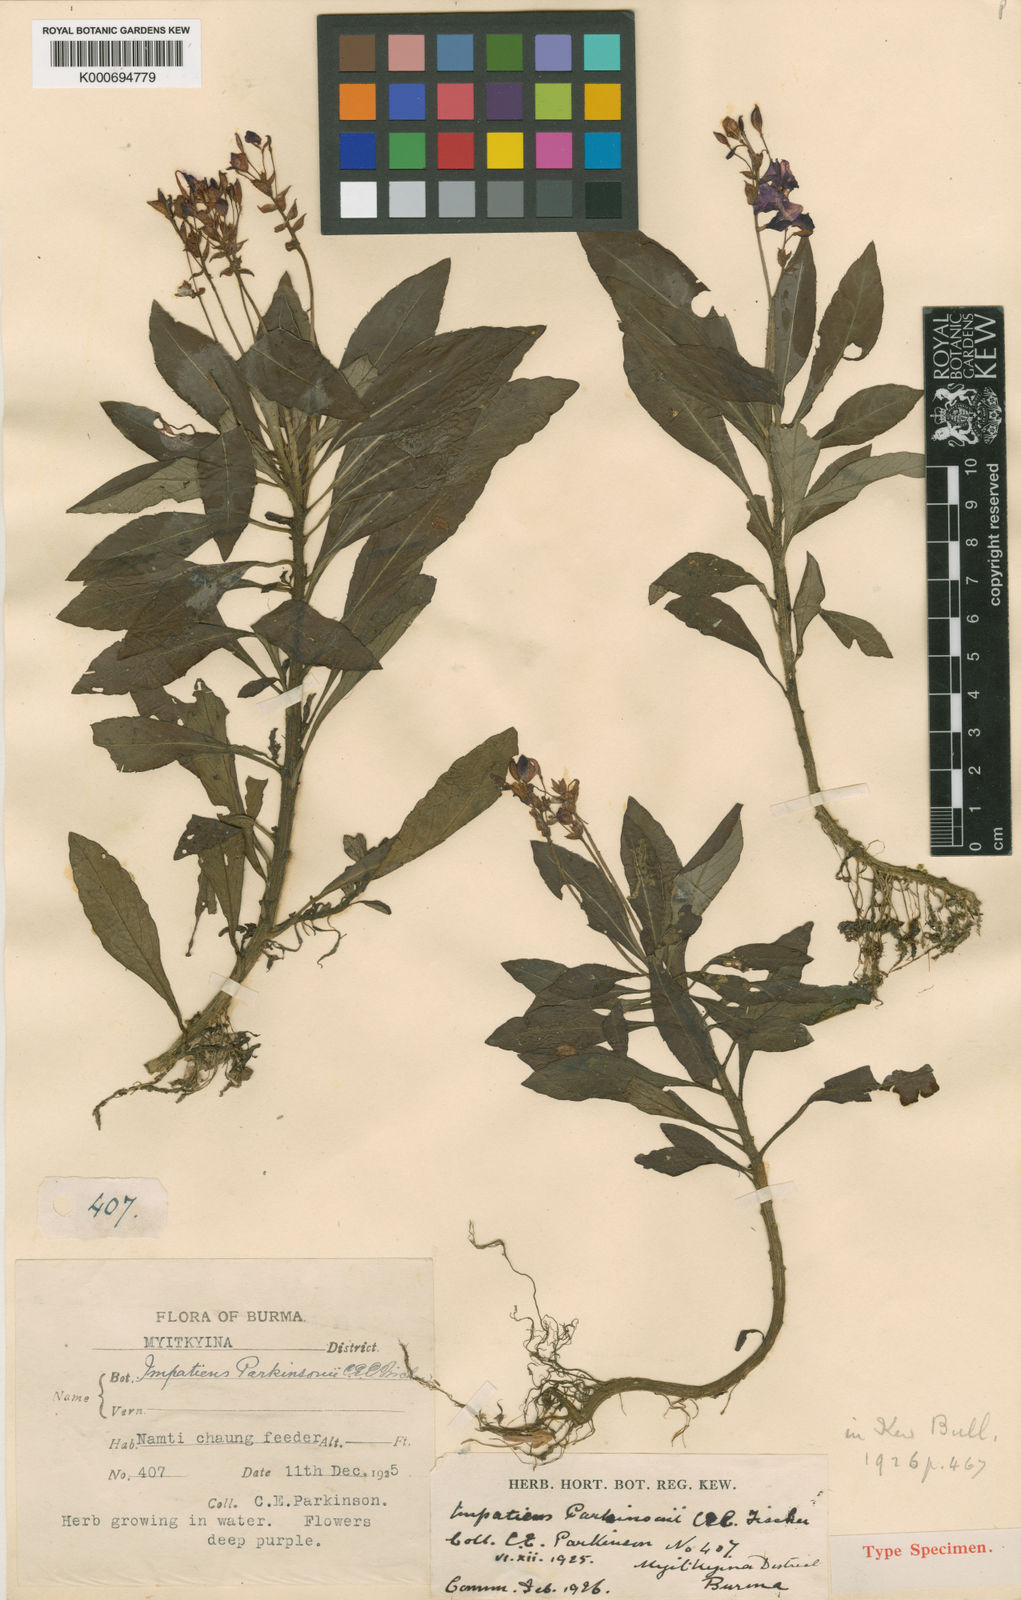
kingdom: Plantae
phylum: Tracheophyta
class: Magnoliopsida
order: Ericales
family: Balsaminaceae
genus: Impatiens
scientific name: Impatiens parkinsonii
